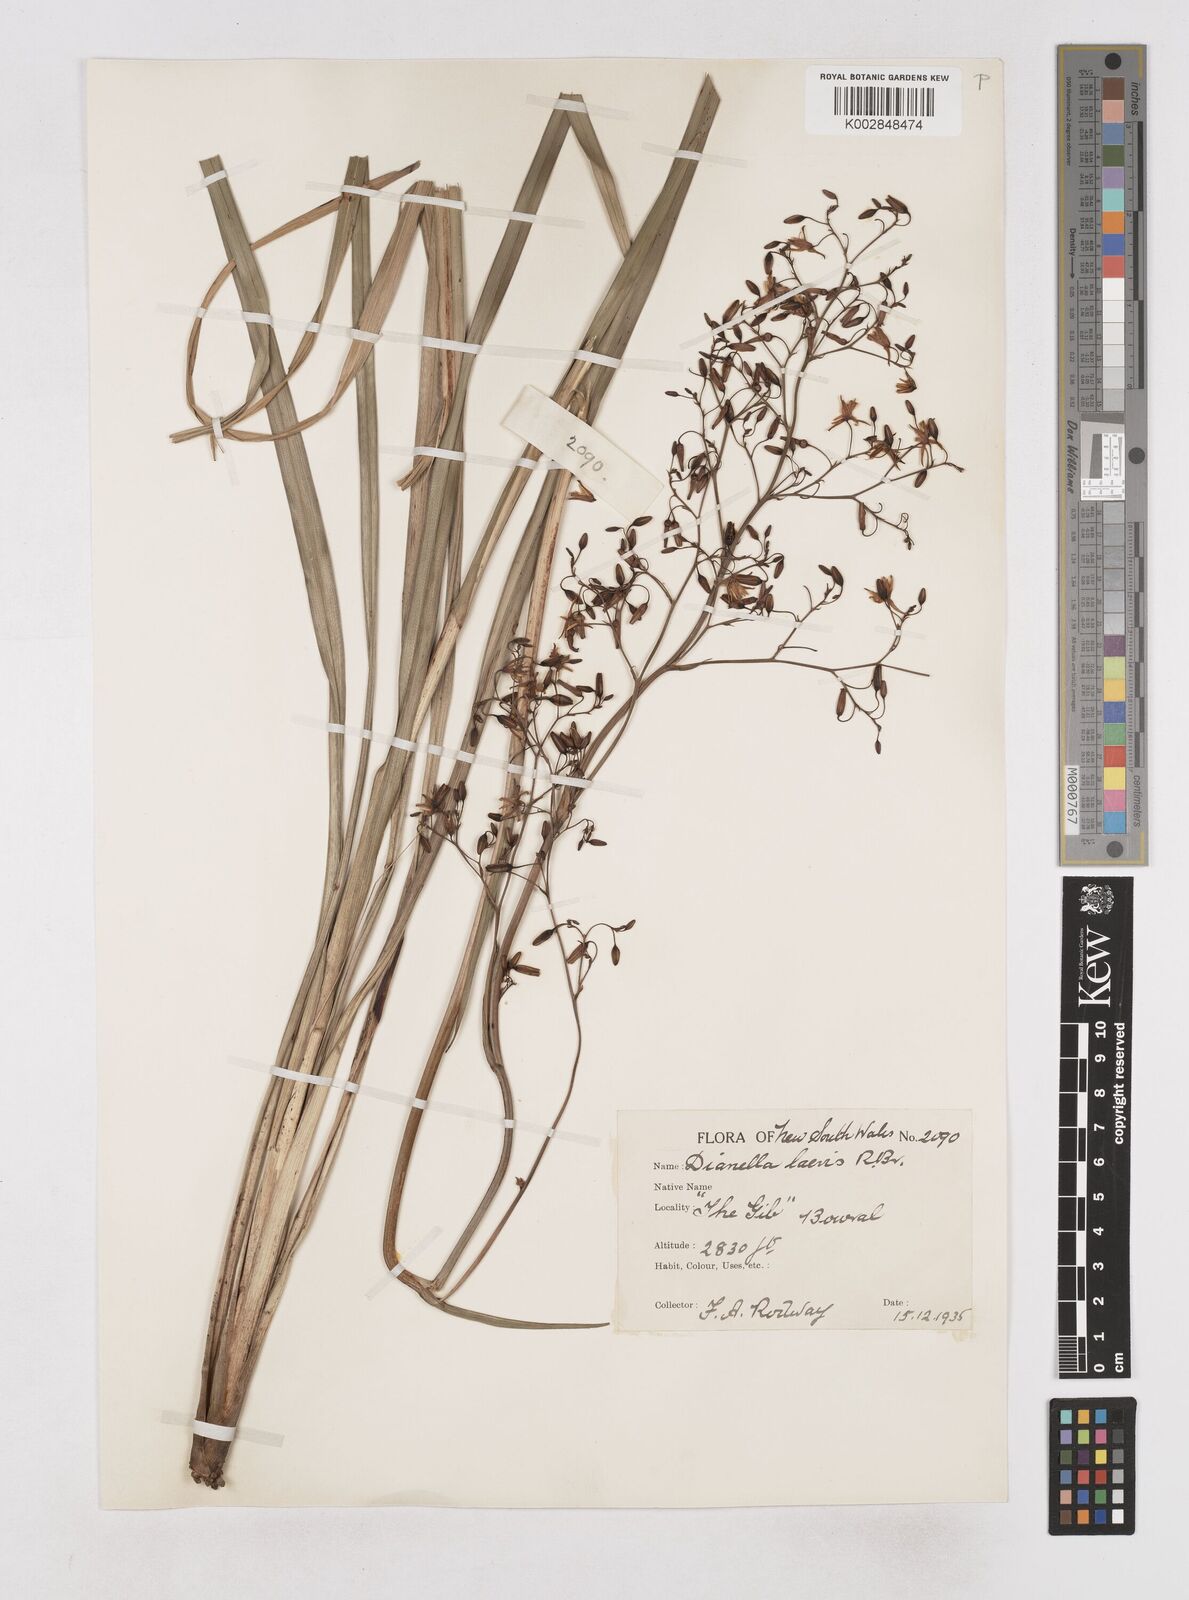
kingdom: Plantae
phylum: Tracheophyta
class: Liliopsida
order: Asparagales
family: Asphodelaceae
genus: Dianella
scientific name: Dianella longifolia
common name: Blue flax-lily
